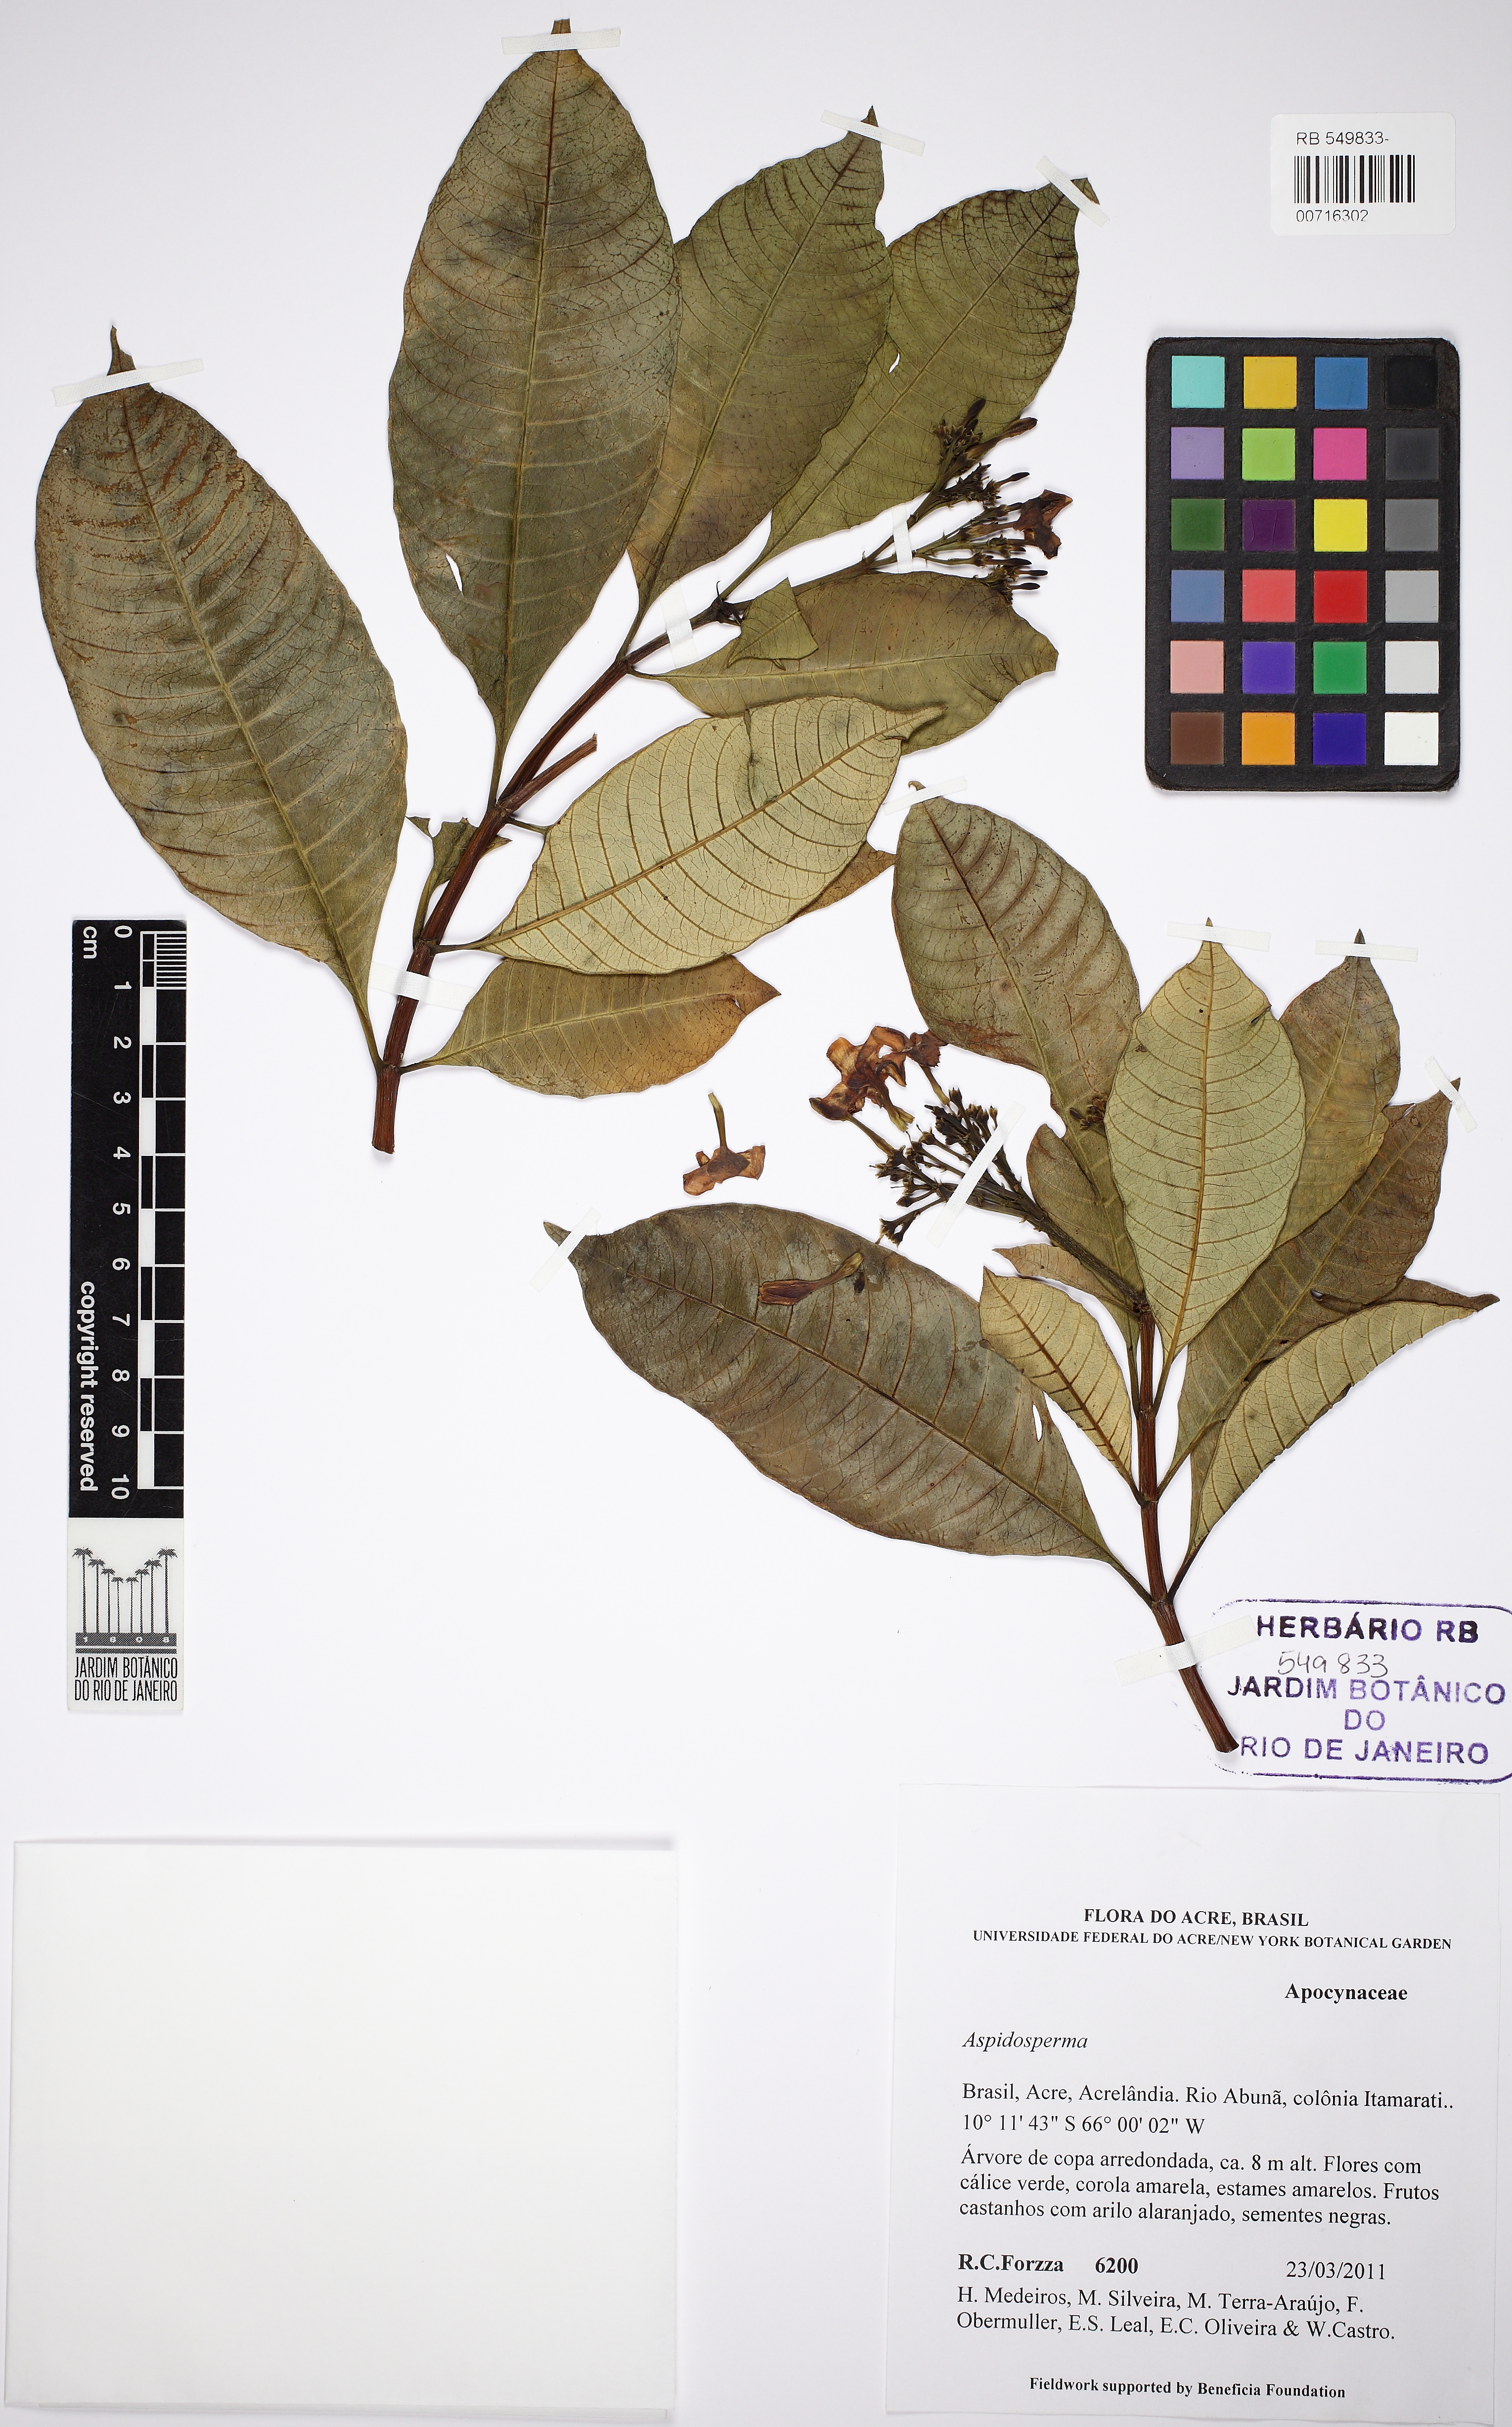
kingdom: Plantae
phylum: Tracheophyta
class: Magnoliopsida
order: Gentianales
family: Apocynaceae
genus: Tabernaemontana
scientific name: Tabernaemontana linkii
